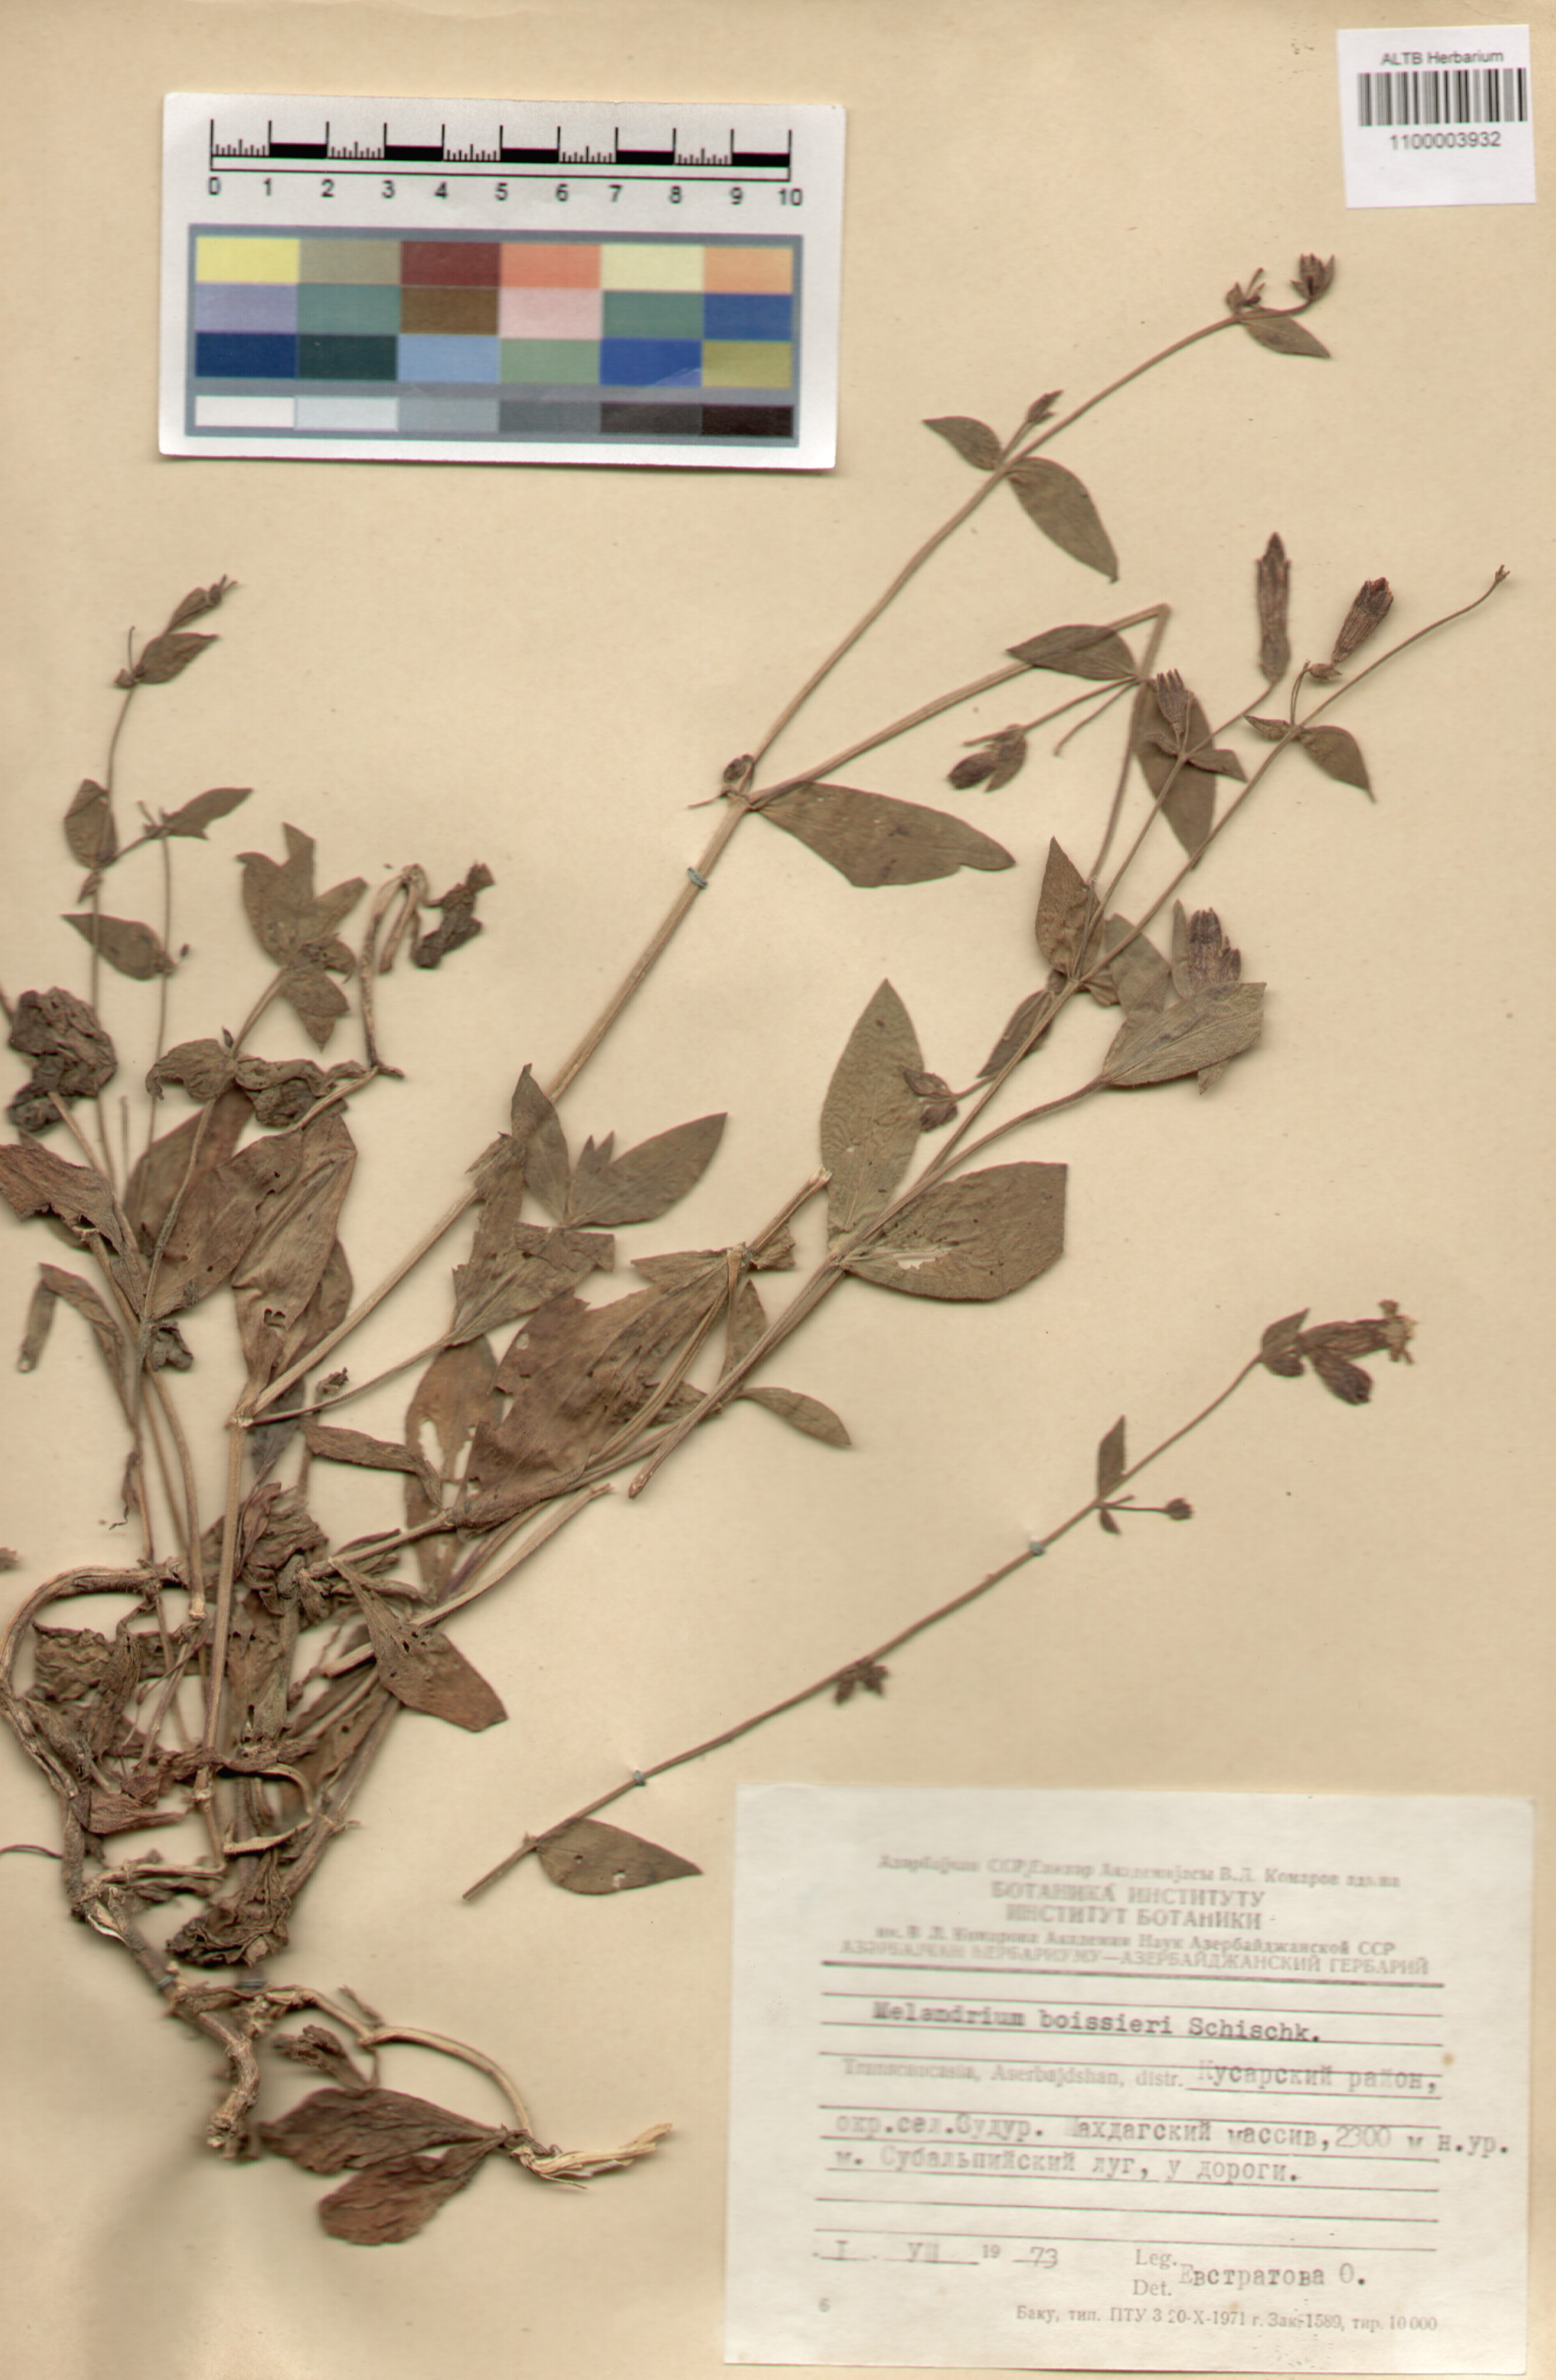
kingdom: Plantae
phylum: Tracheophyta
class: Magnoliopsida
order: Caryophyllales
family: Caryophyllaceae
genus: Silene
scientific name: Silene latifolia
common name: White campion
